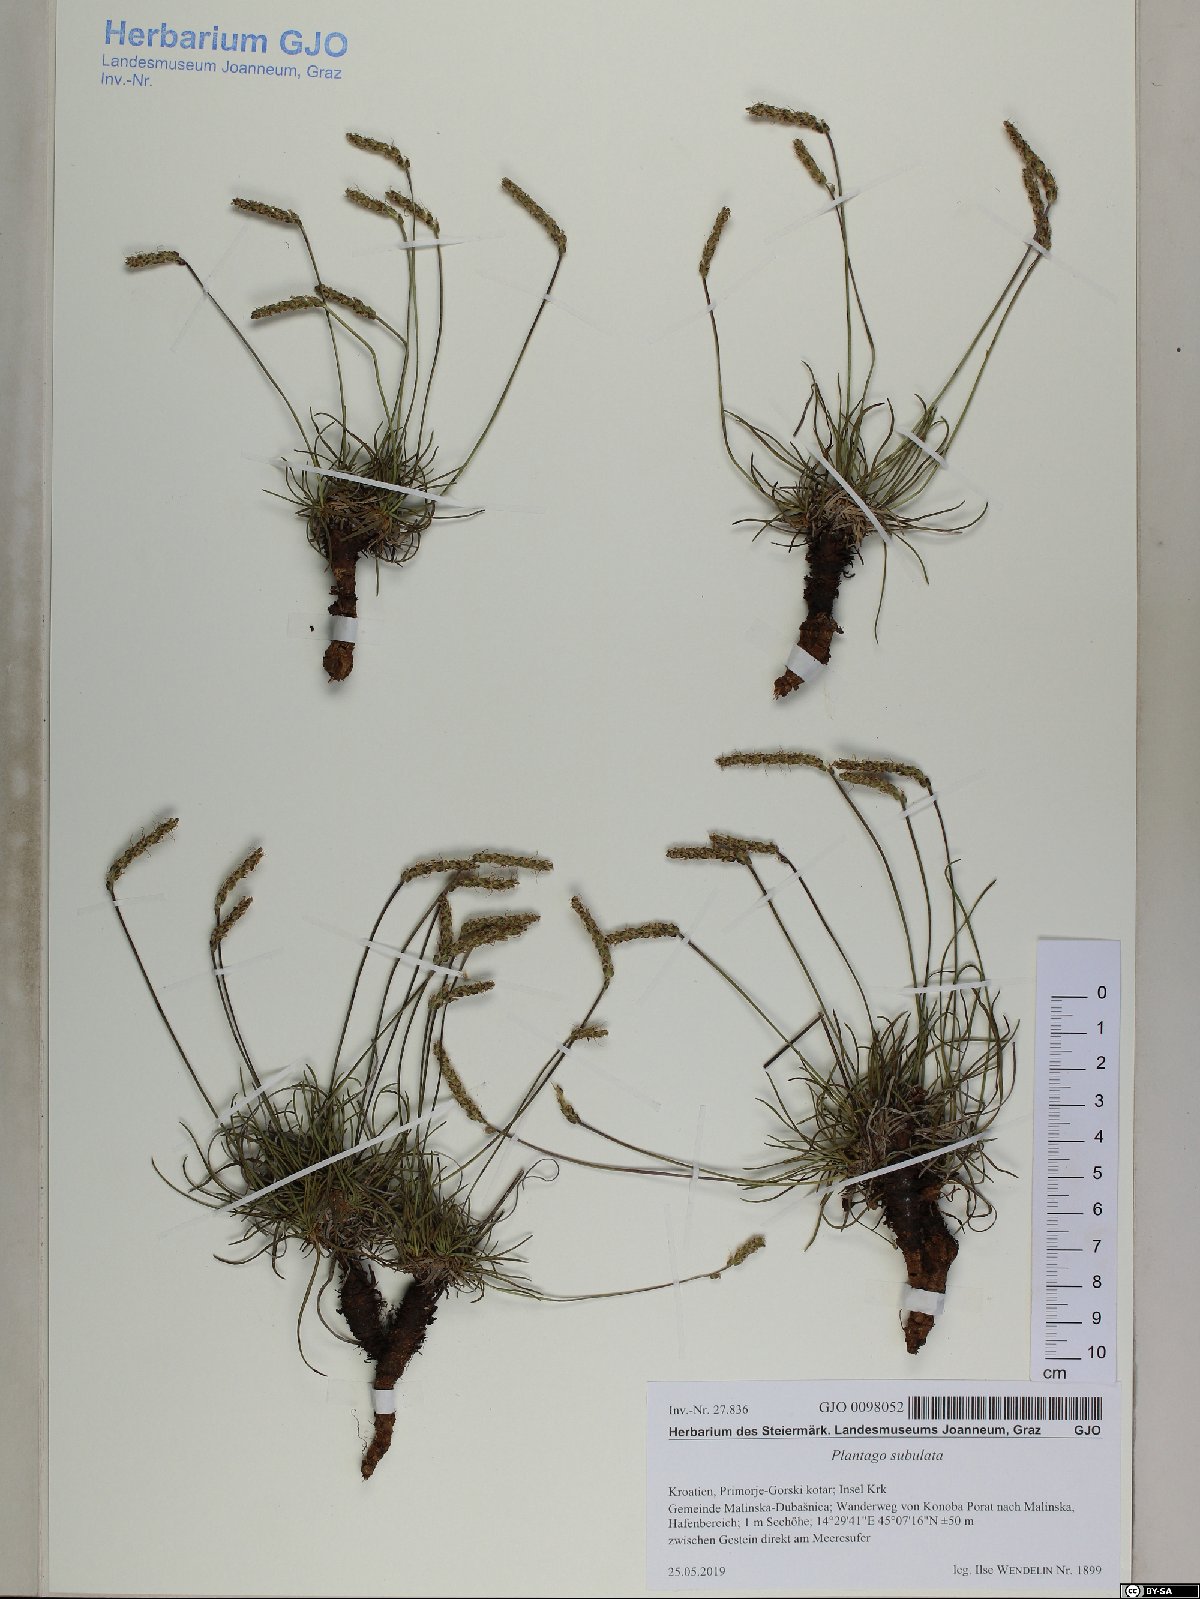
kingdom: Plantae
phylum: Tracheophyta
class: Magnoliopsida
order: Lamiales
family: Plantaginaceae
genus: Plantago
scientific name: Plantago subulata
